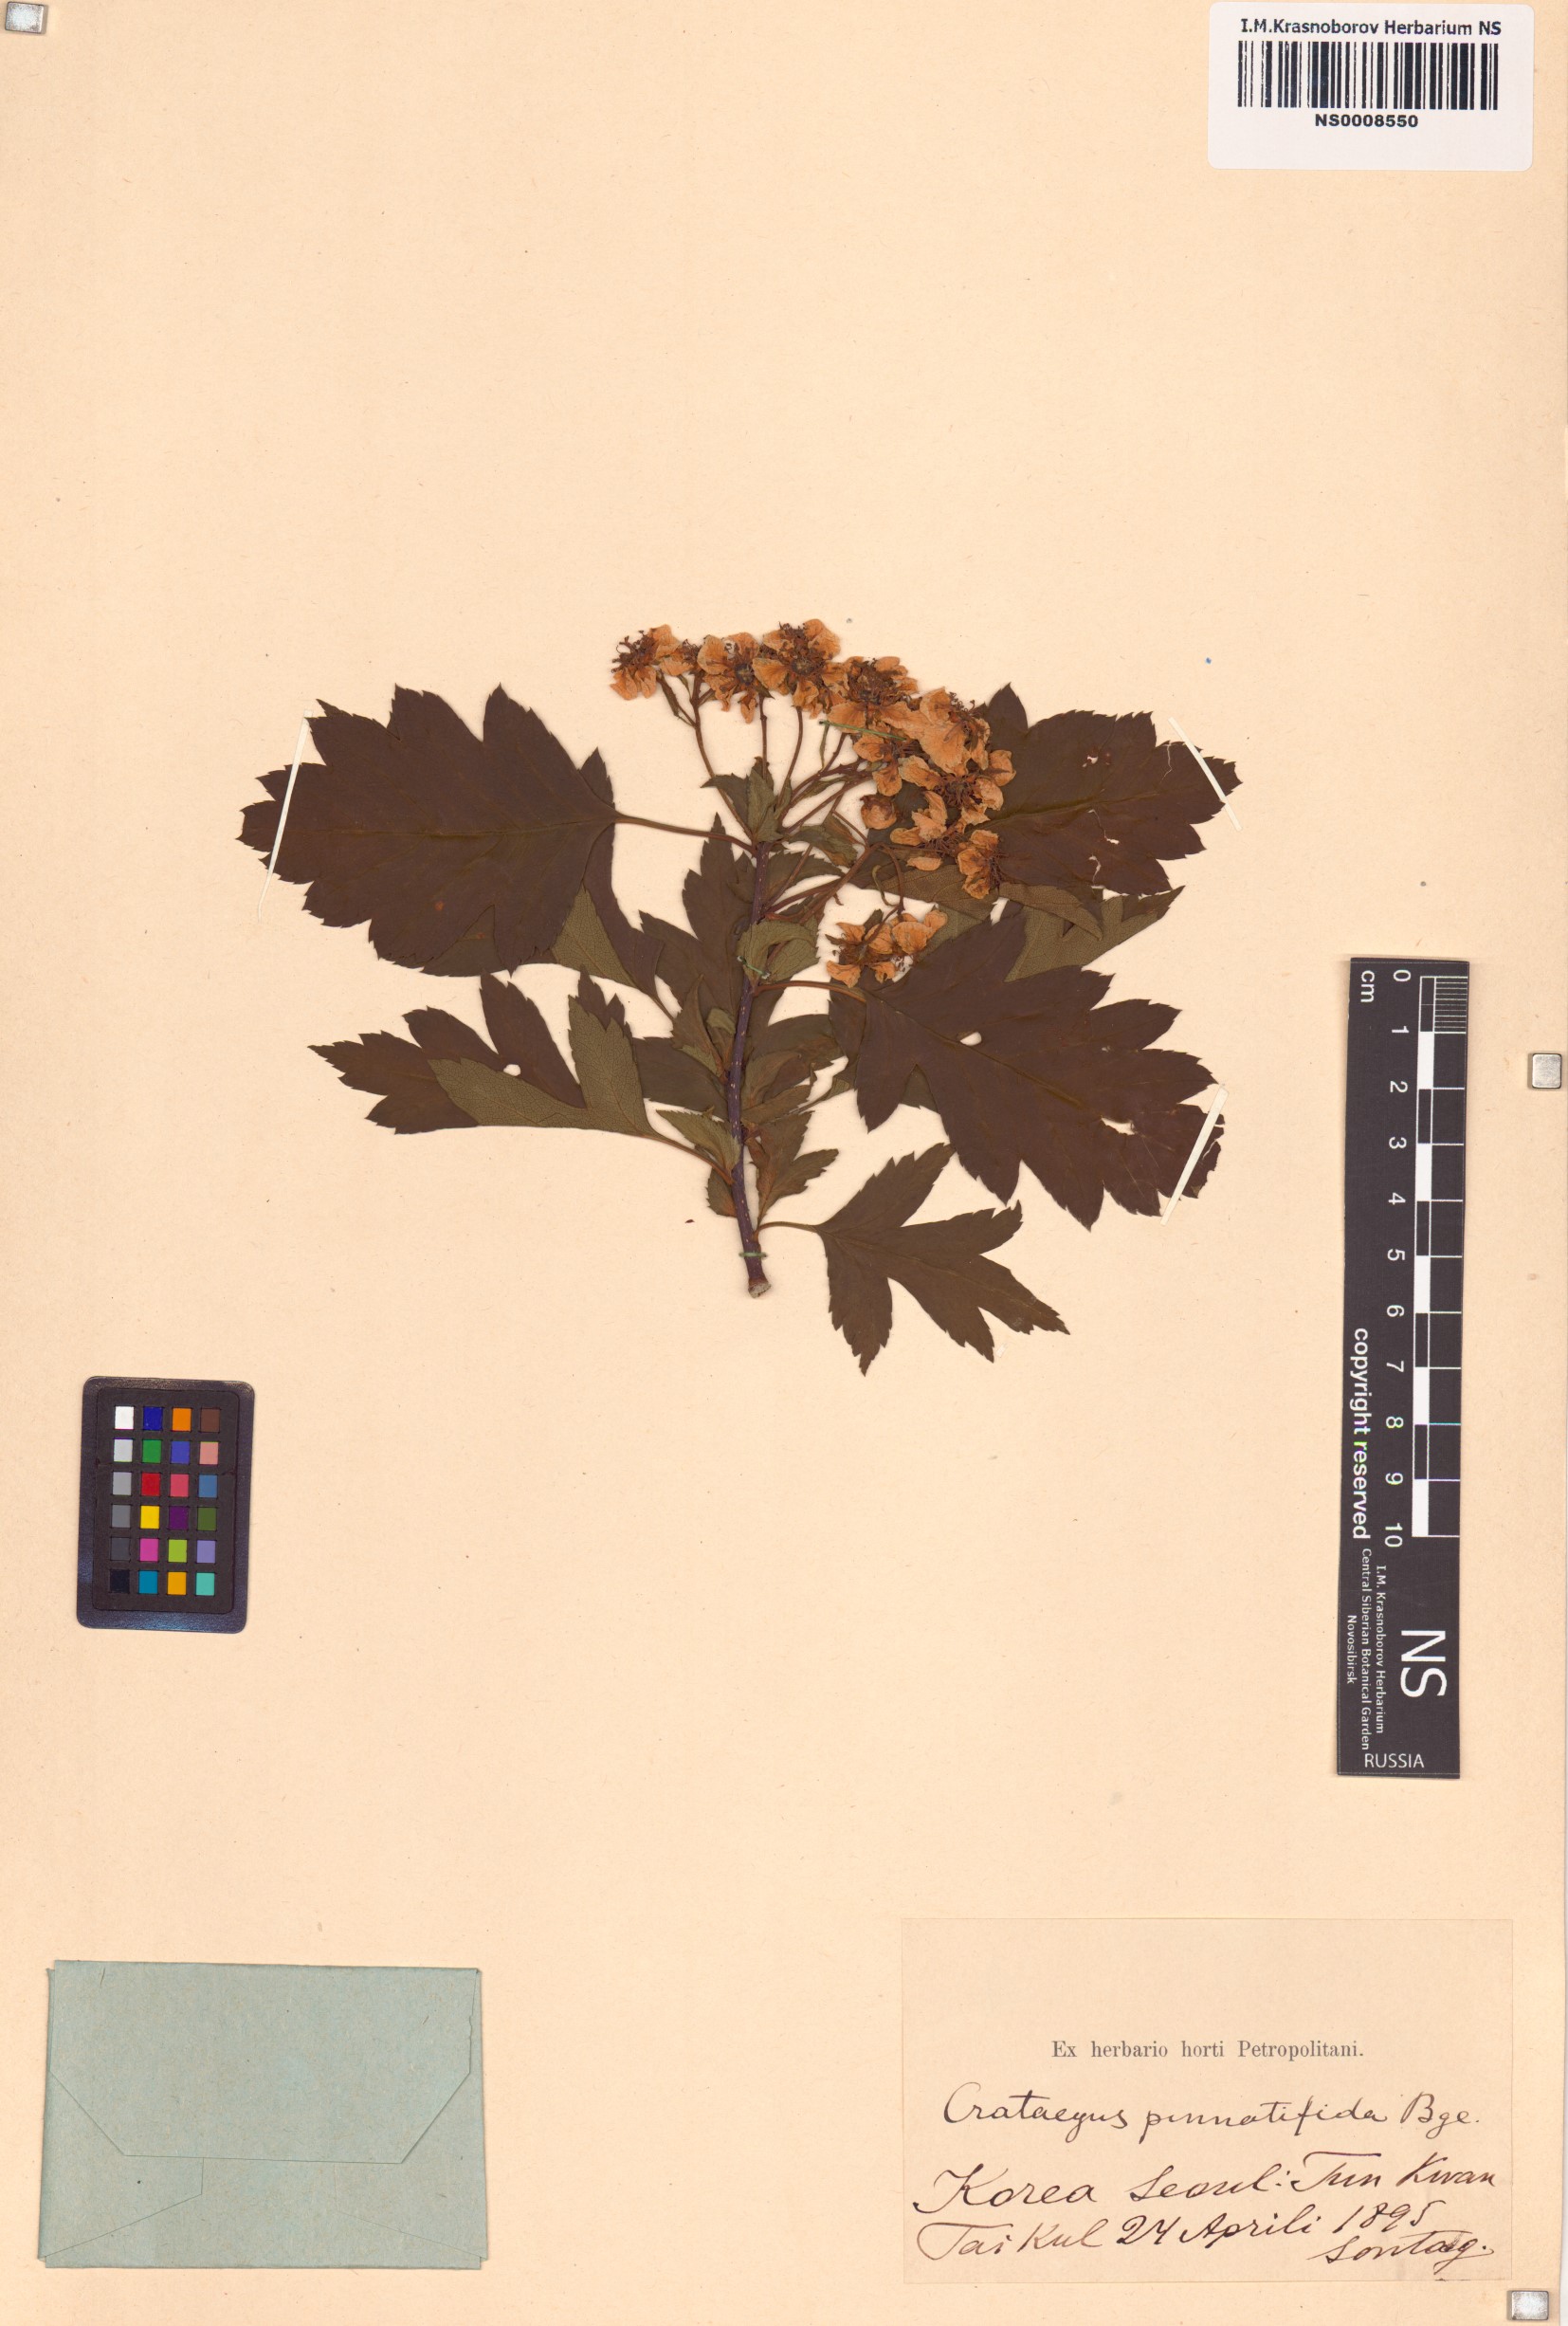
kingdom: Plantae
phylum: Tracheophyta
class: Magnoliopsida
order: Rosales
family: Rosaceae
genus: Crataegus
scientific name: Crataegus pinnatifida
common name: Chinese haw
